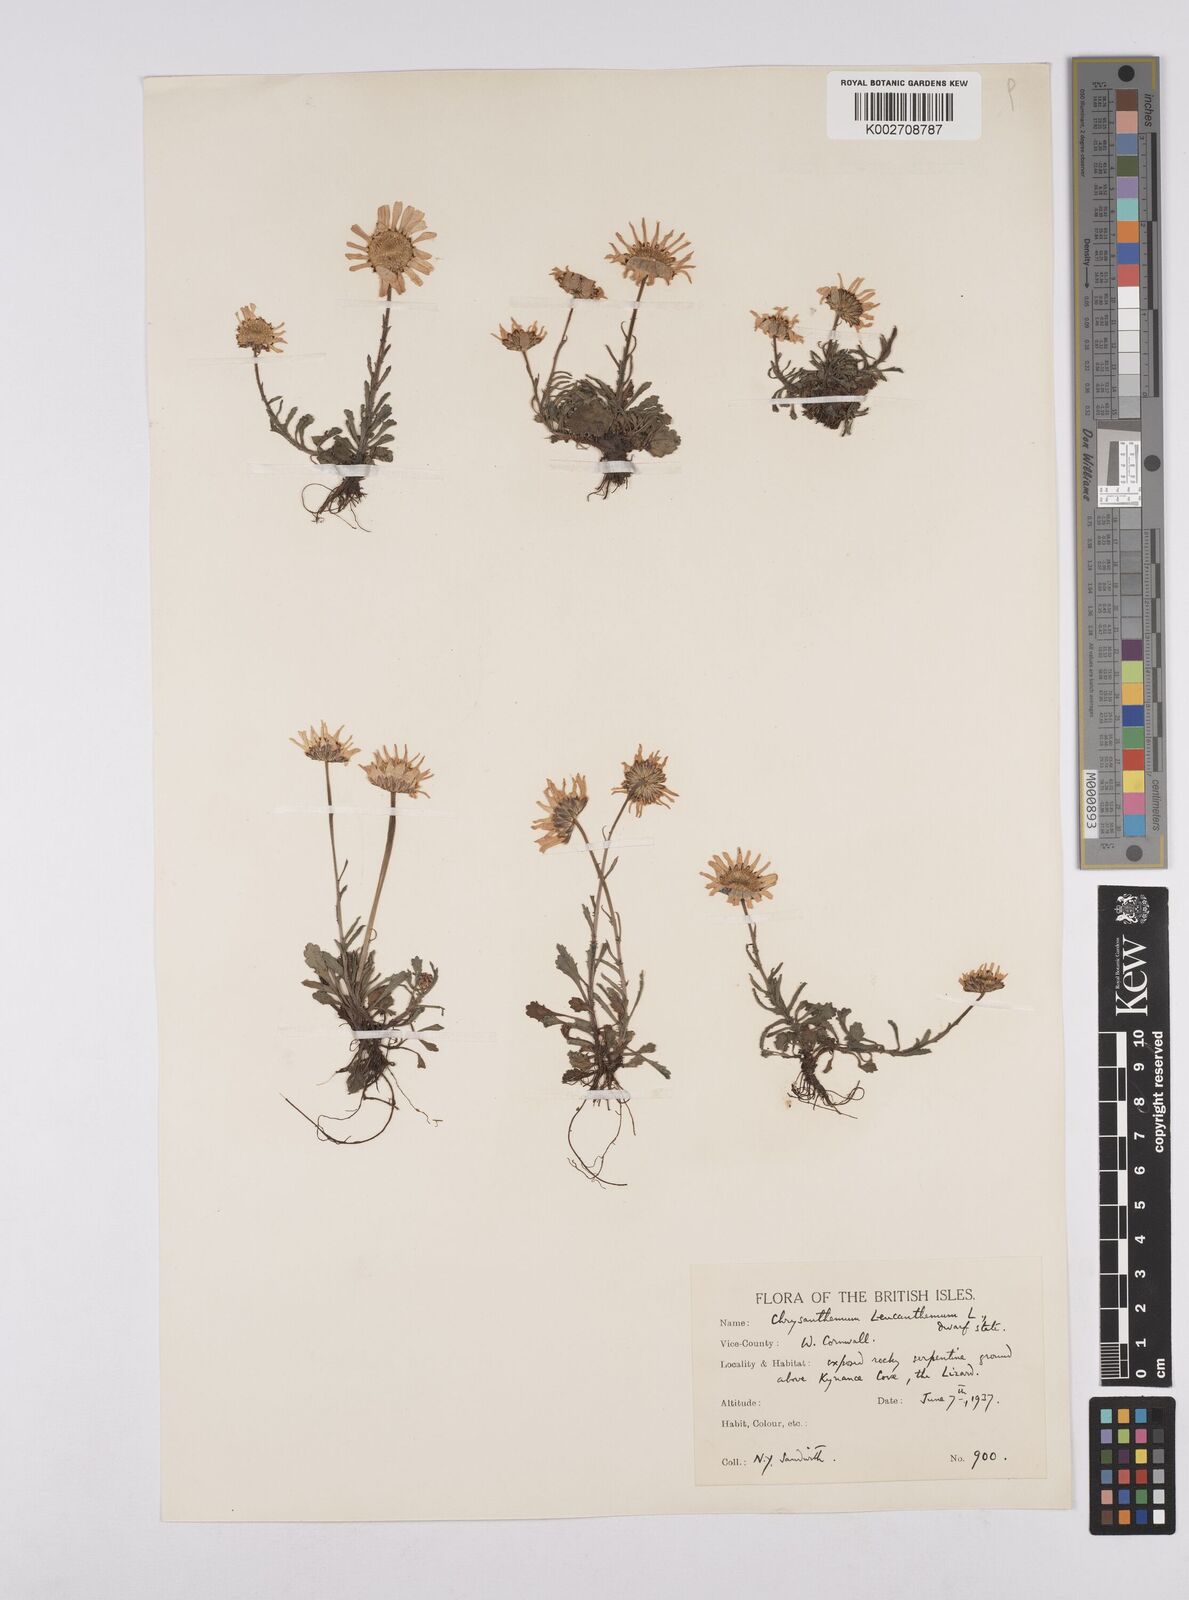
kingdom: Plantae
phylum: Tracheophyta
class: Magnoliopsida
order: Asterales
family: Asteraceae
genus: Leucanthemum
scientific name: Leucanthemum vulgare
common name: Oxeye daisy
